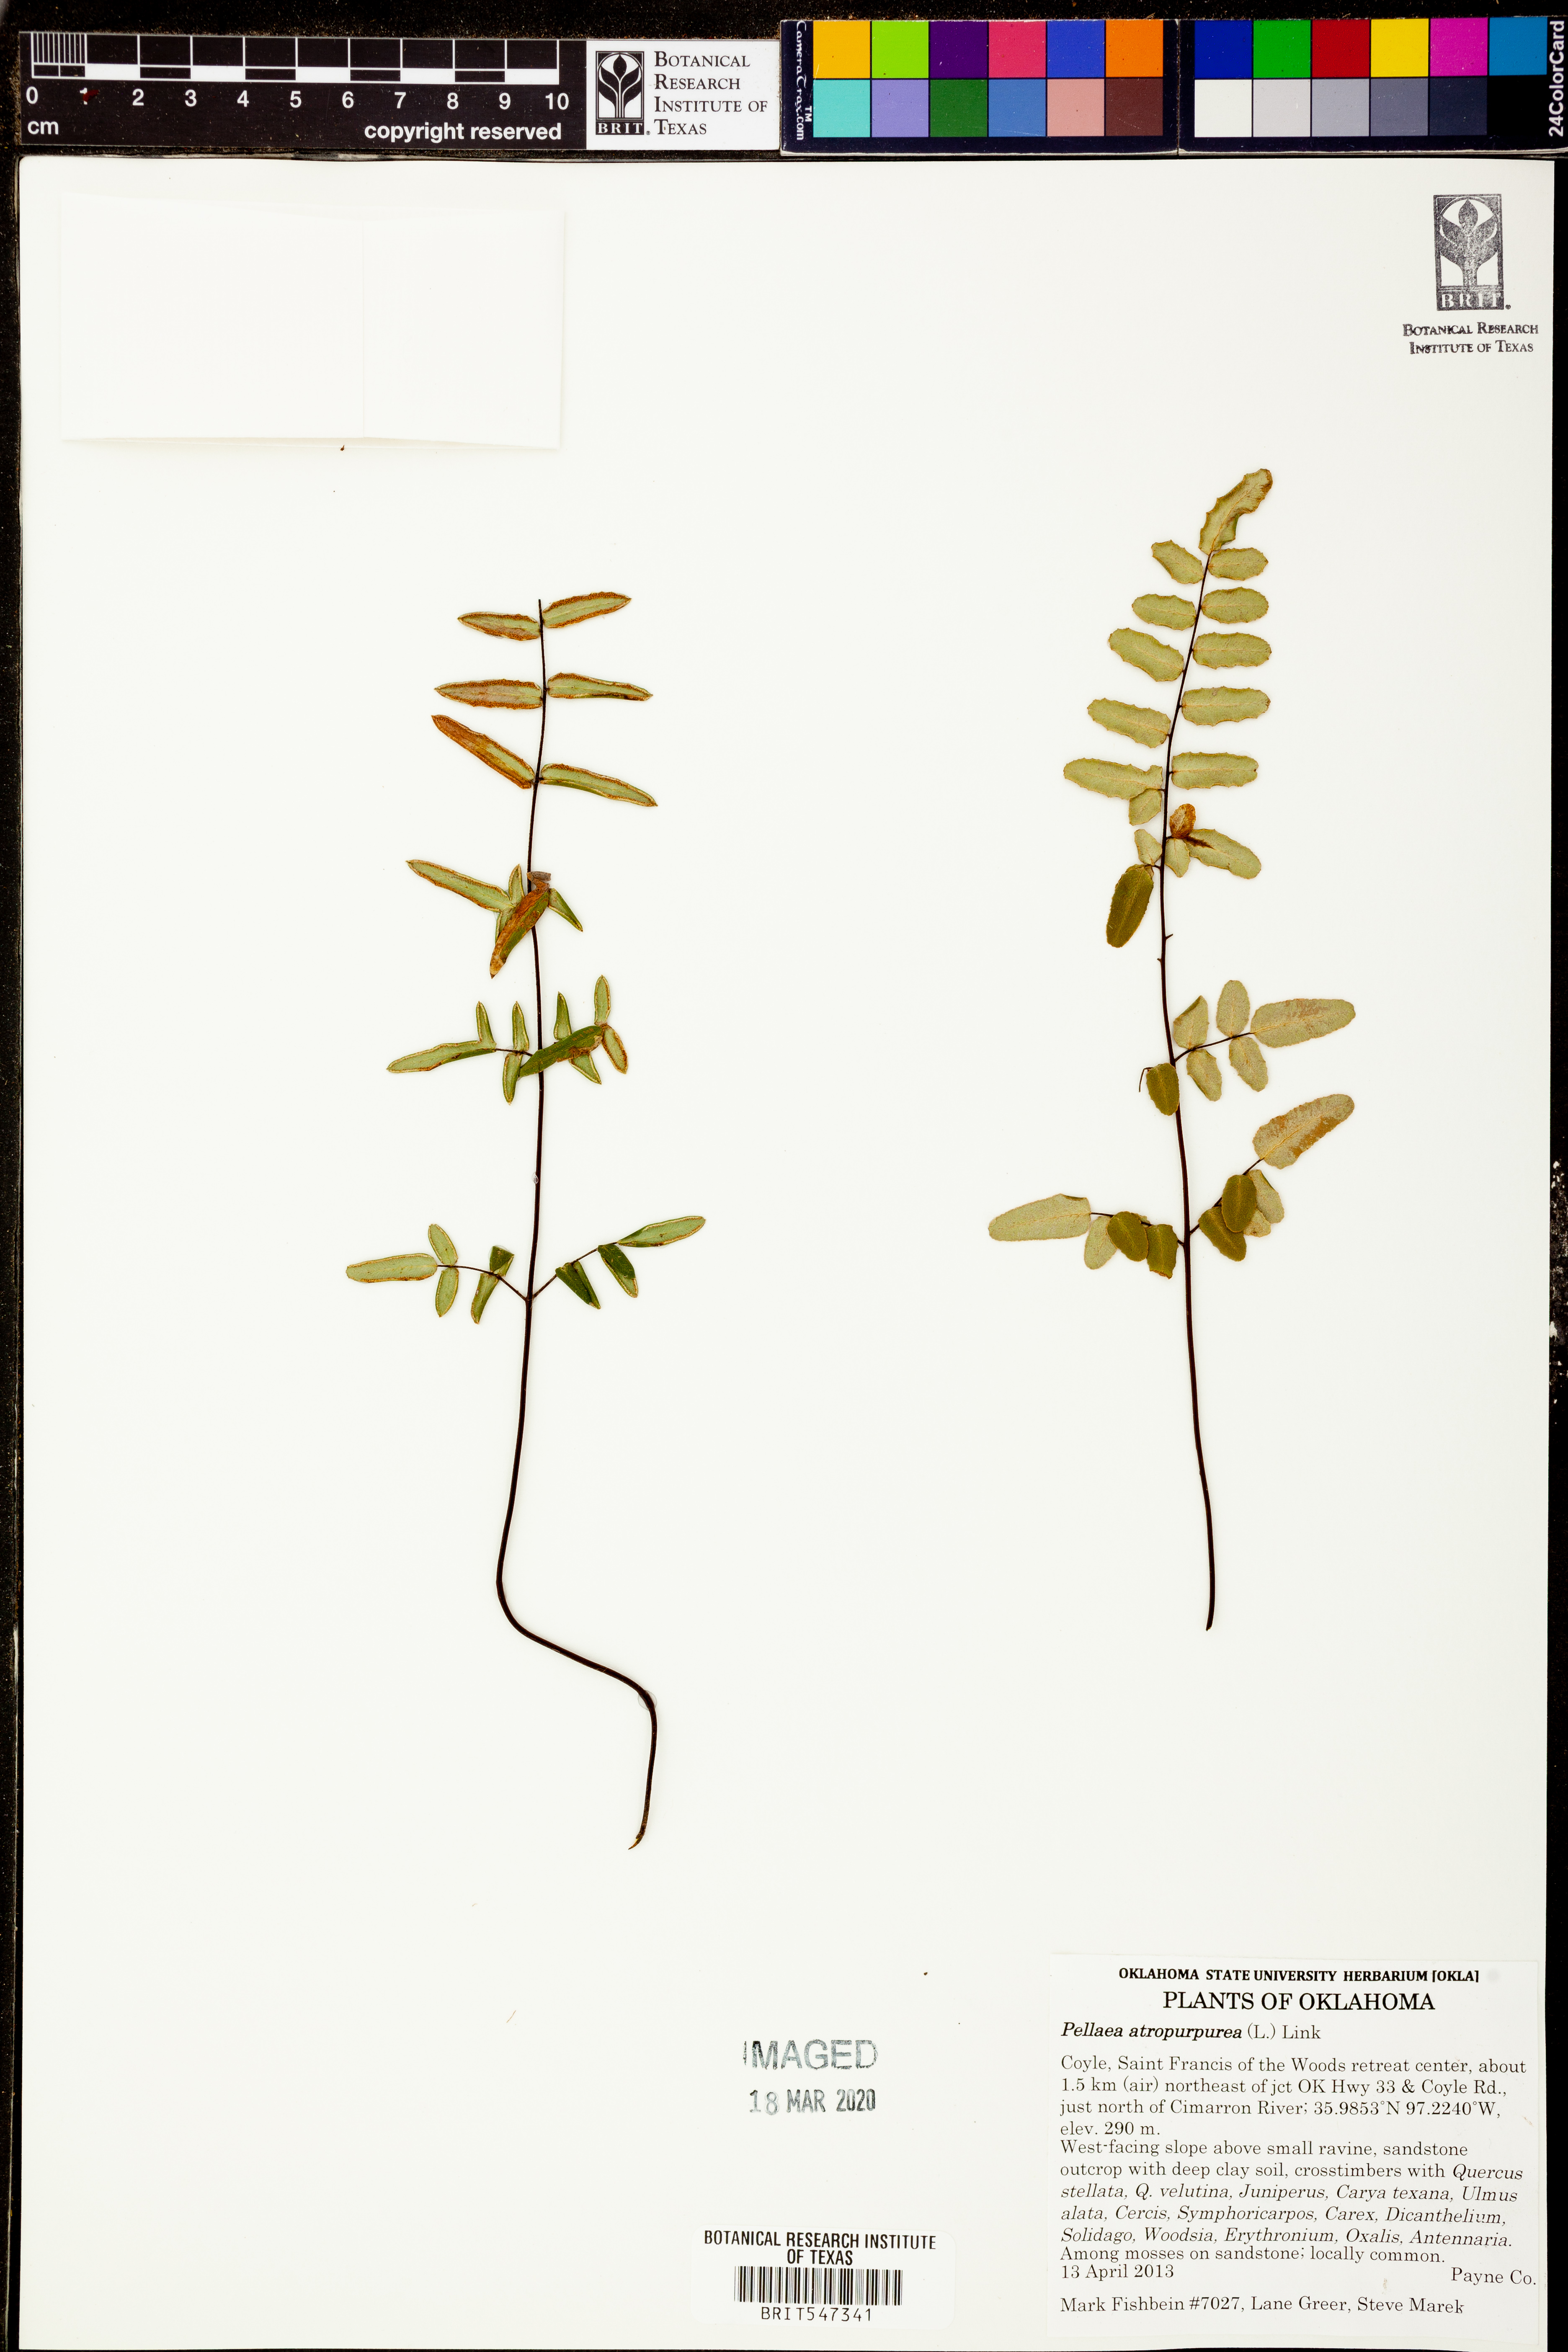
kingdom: Plantae
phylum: Tracheophyta
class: Polypodiopsida
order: Polypodiales
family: Pteridaceae
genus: Pellaea
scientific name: Pellaea atropurpurea
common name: Hairy cliffbrake
